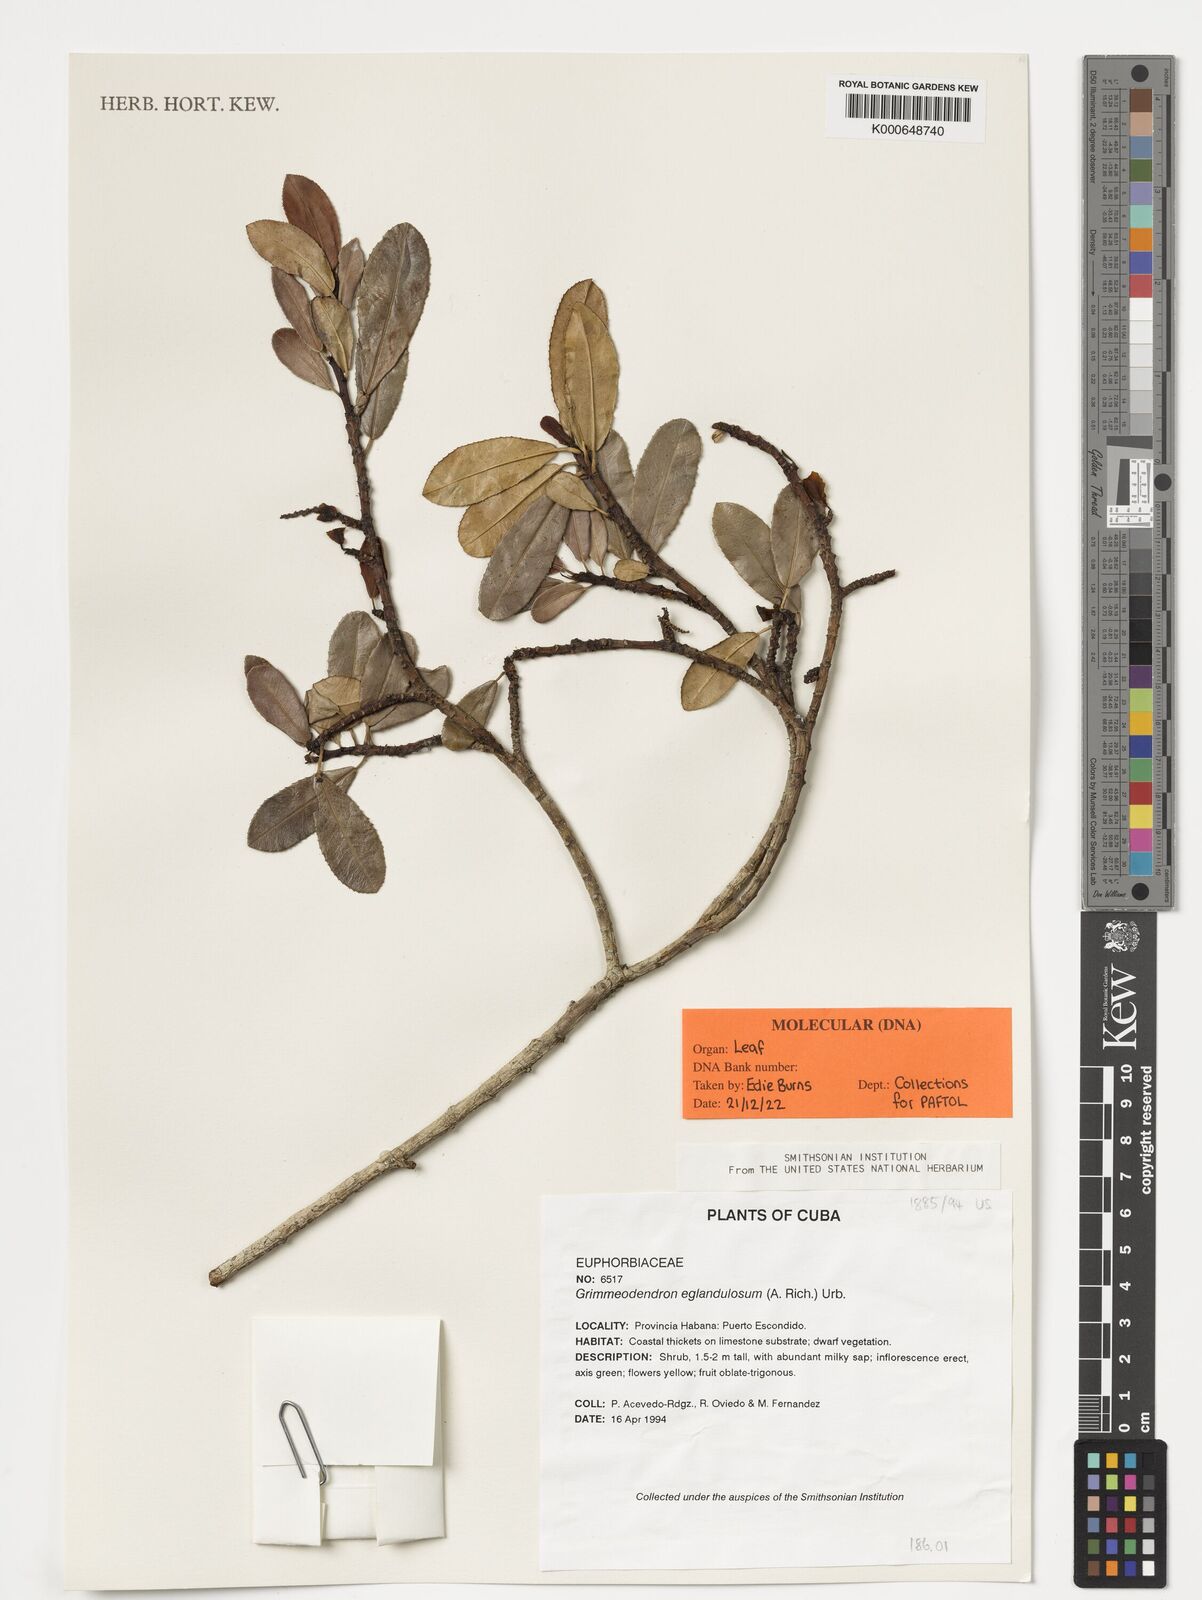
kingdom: Plantae
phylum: Tracheophyta
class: Magnoliopsida
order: Malpighiales
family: Euphorbiaceae
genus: Grimmeodendron
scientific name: Grimmeodendron eglandulosum
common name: Grimm’s tree
